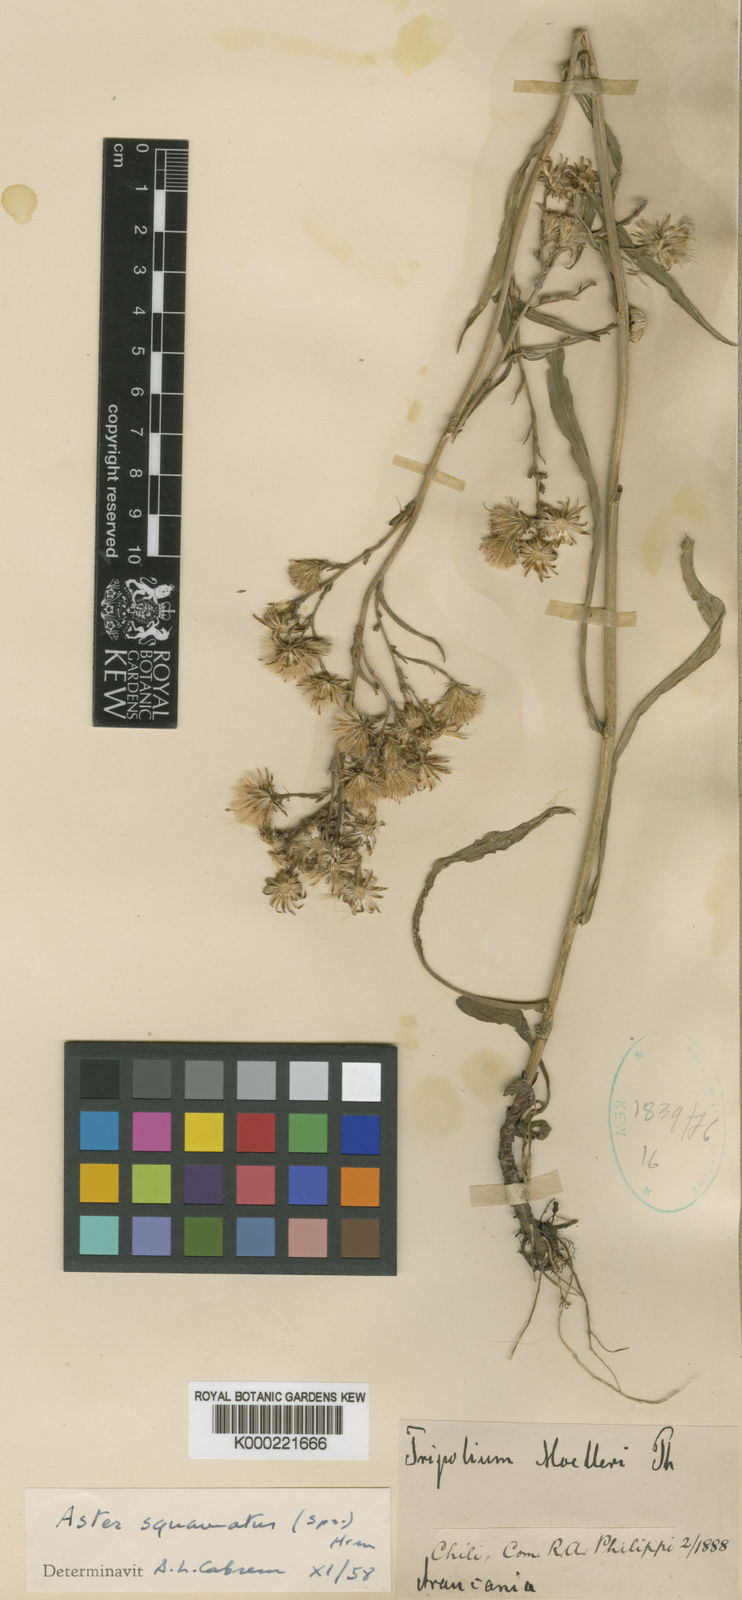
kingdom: Plantae
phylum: Tracheophyta
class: Magnoliopsida
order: Asterales
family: Asteraceae
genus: Symphyotrichum
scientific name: Symphyotrichum squamatum
